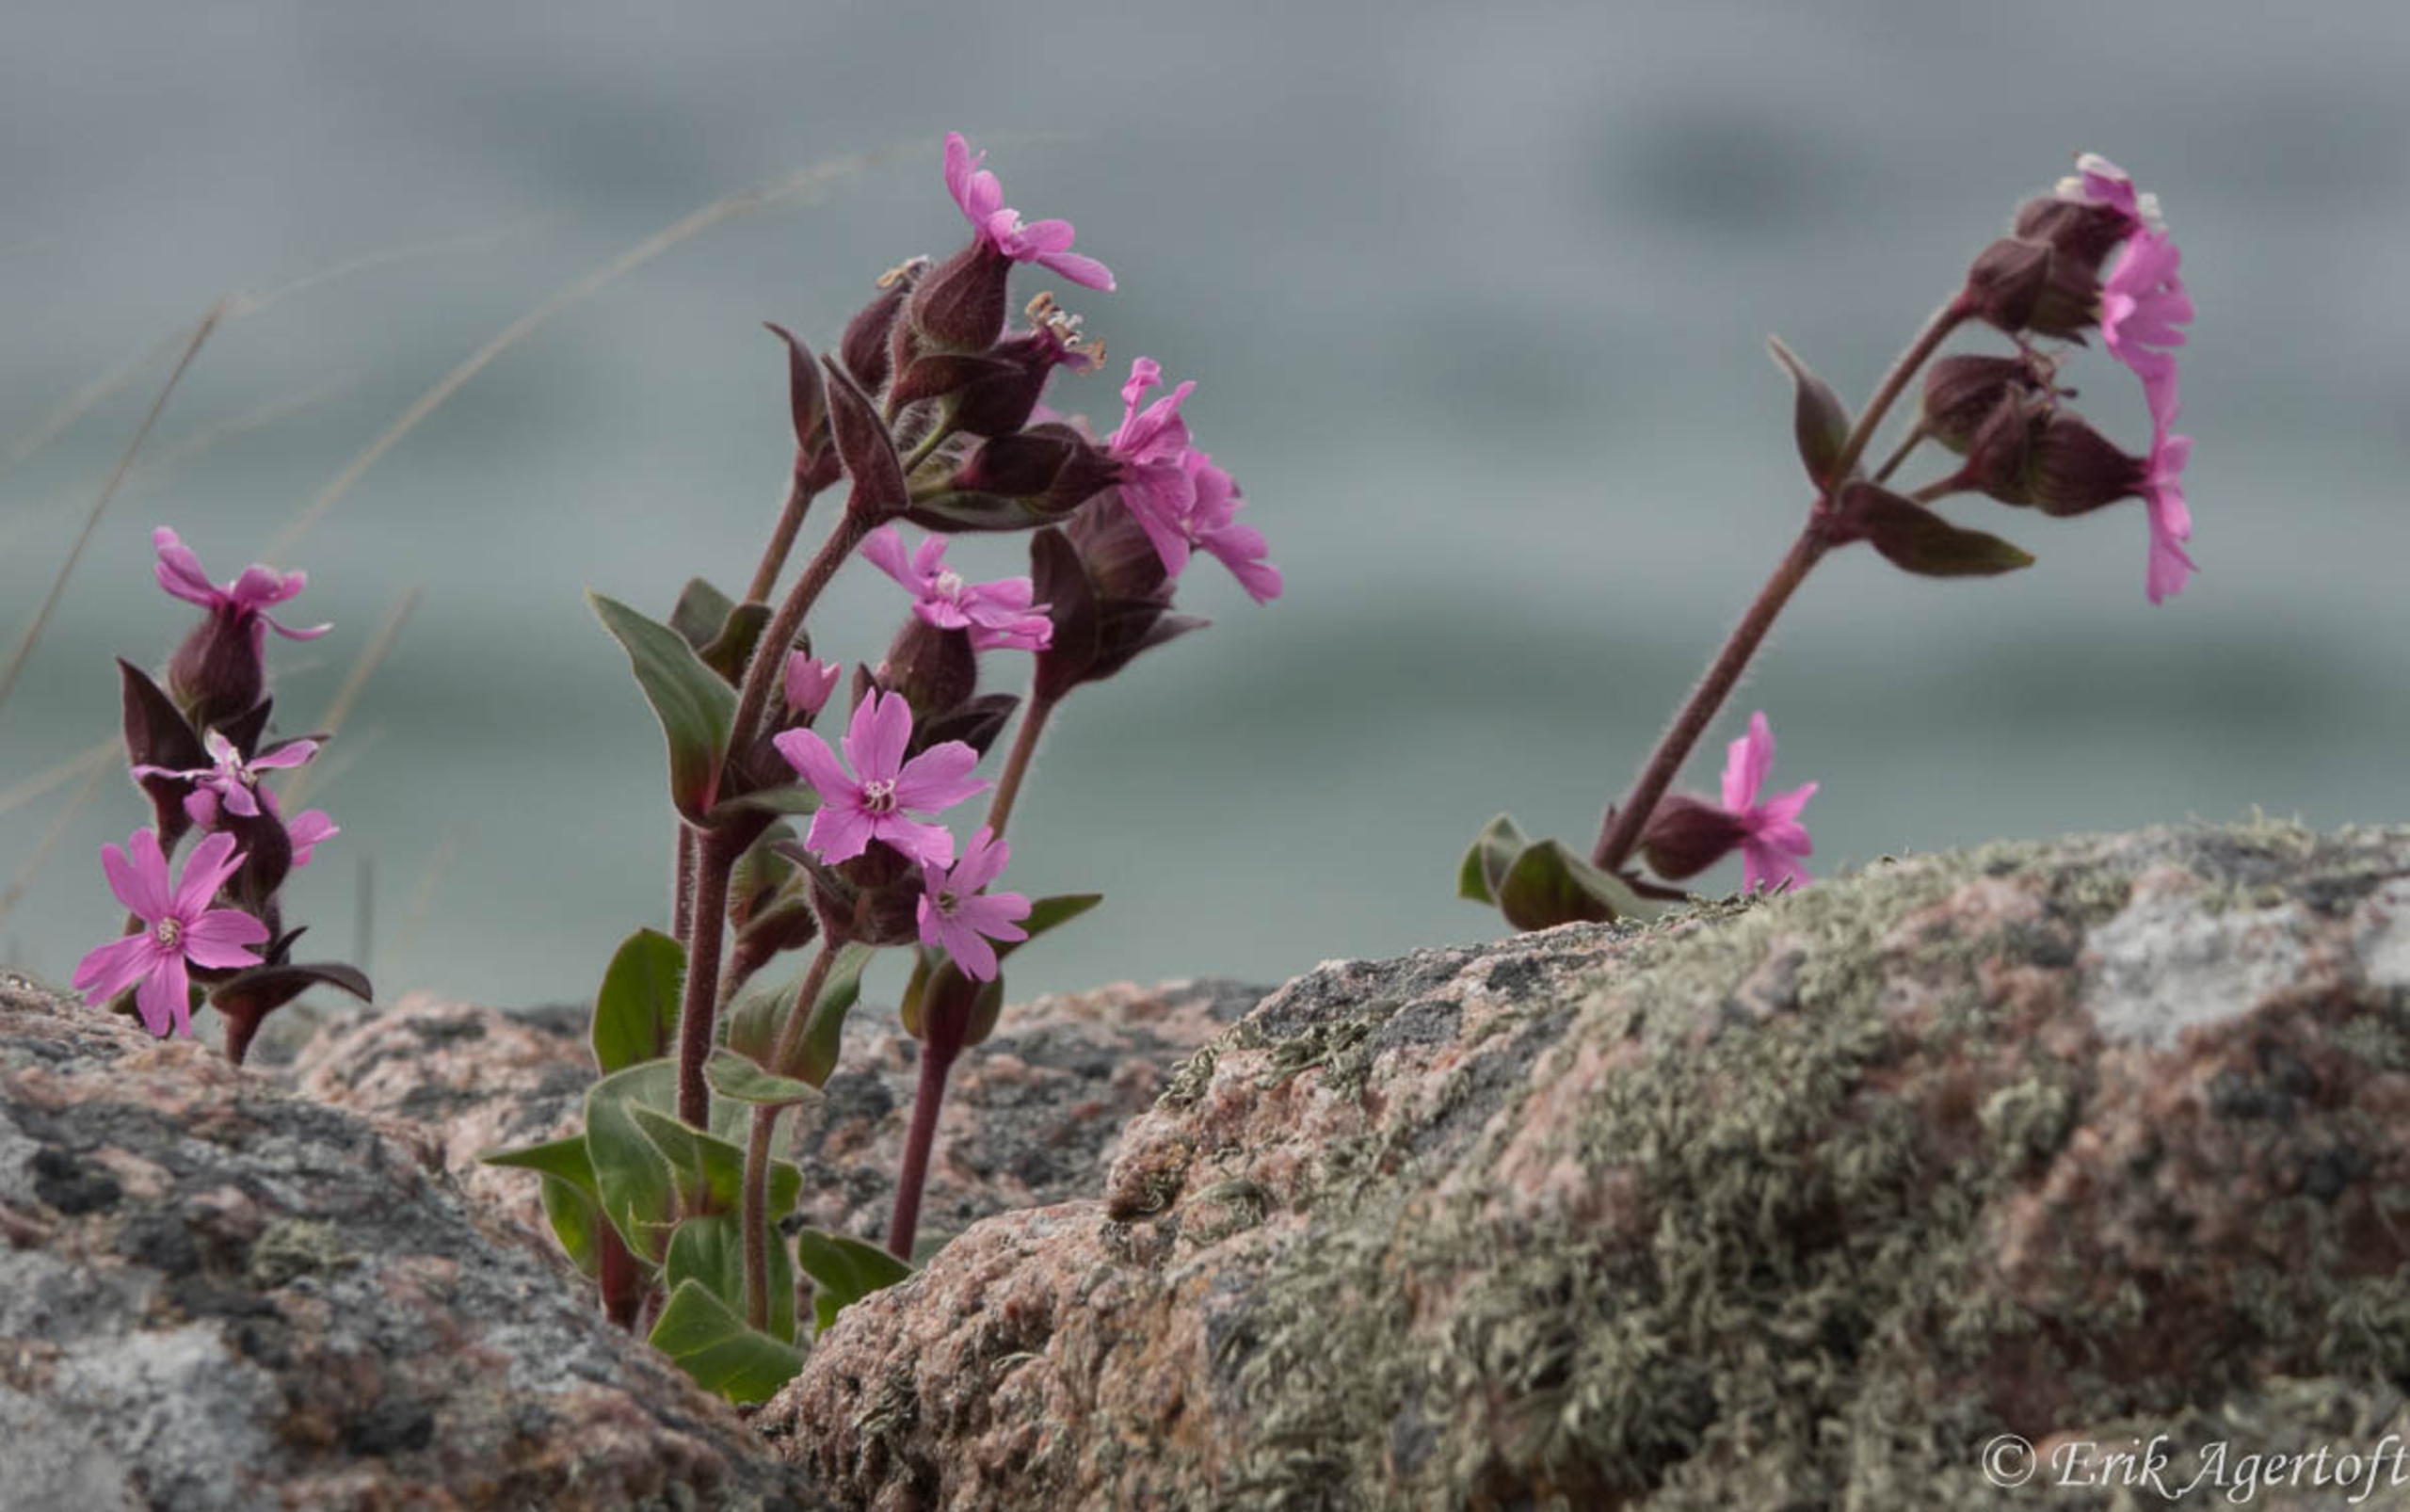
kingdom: Plantae
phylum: Tracheophyta
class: Magnoliopsida
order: Caryophyllales
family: Caryophyllaceae
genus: Silene
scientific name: Silene dioica
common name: Dagpragtstjerne
